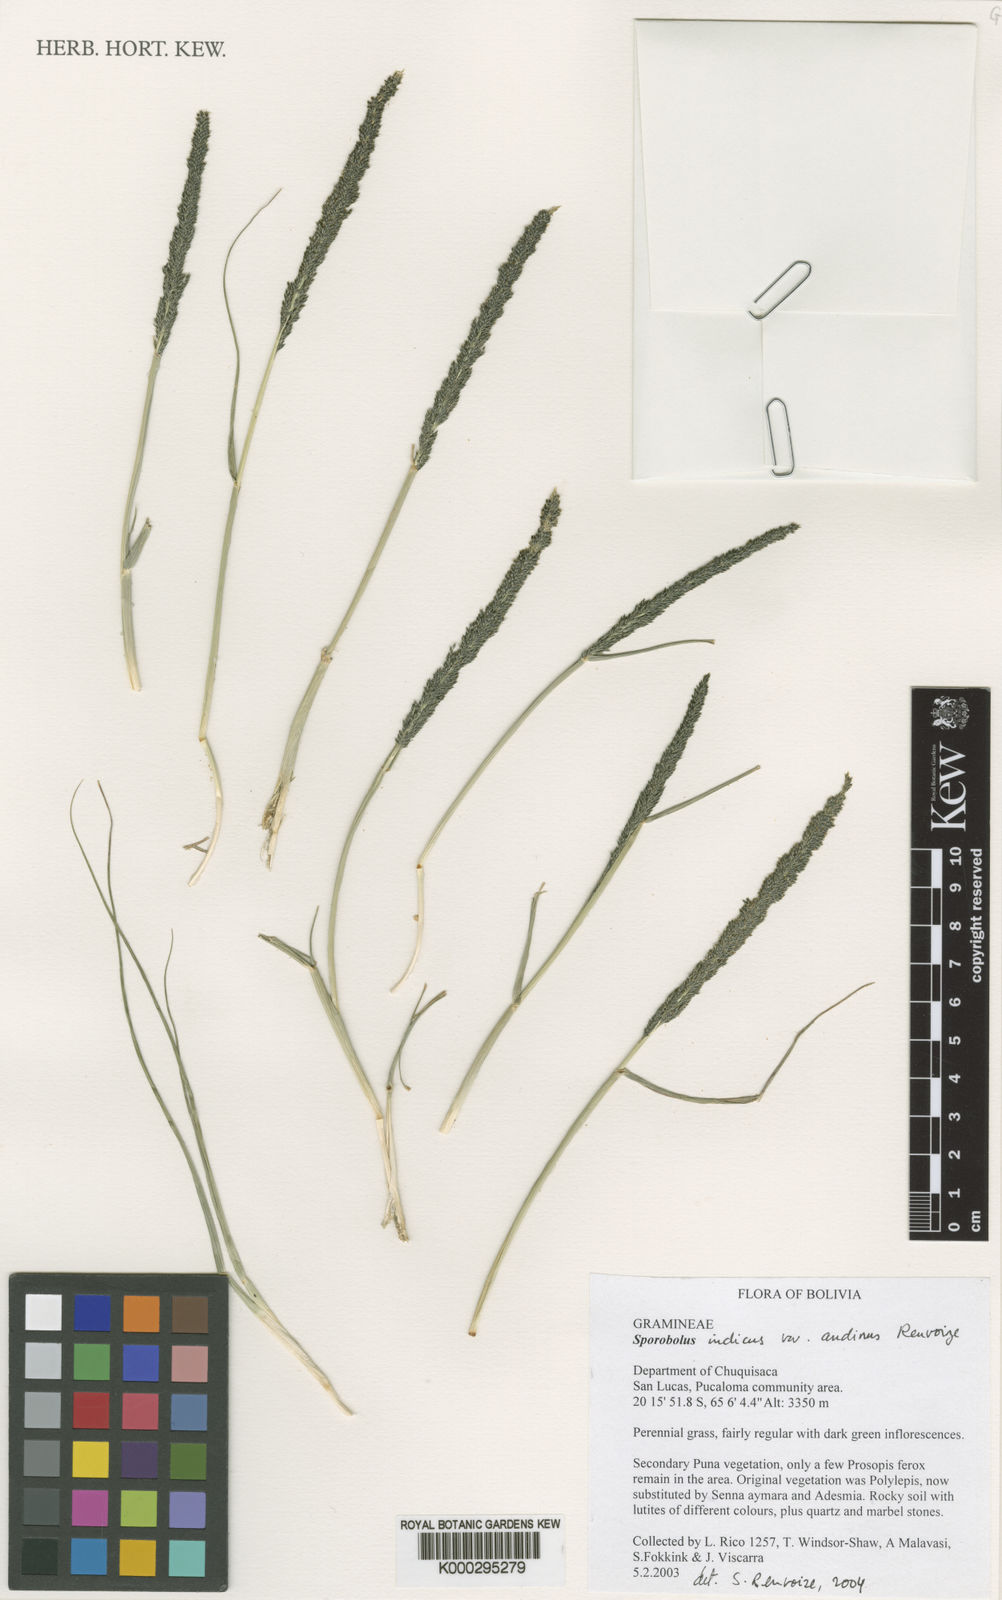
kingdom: Plantae
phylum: Tracheophyta
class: Liliopsida
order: Poales
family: Poaceae
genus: Sporobolus
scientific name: Sporobolus indicus
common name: Smut grass
